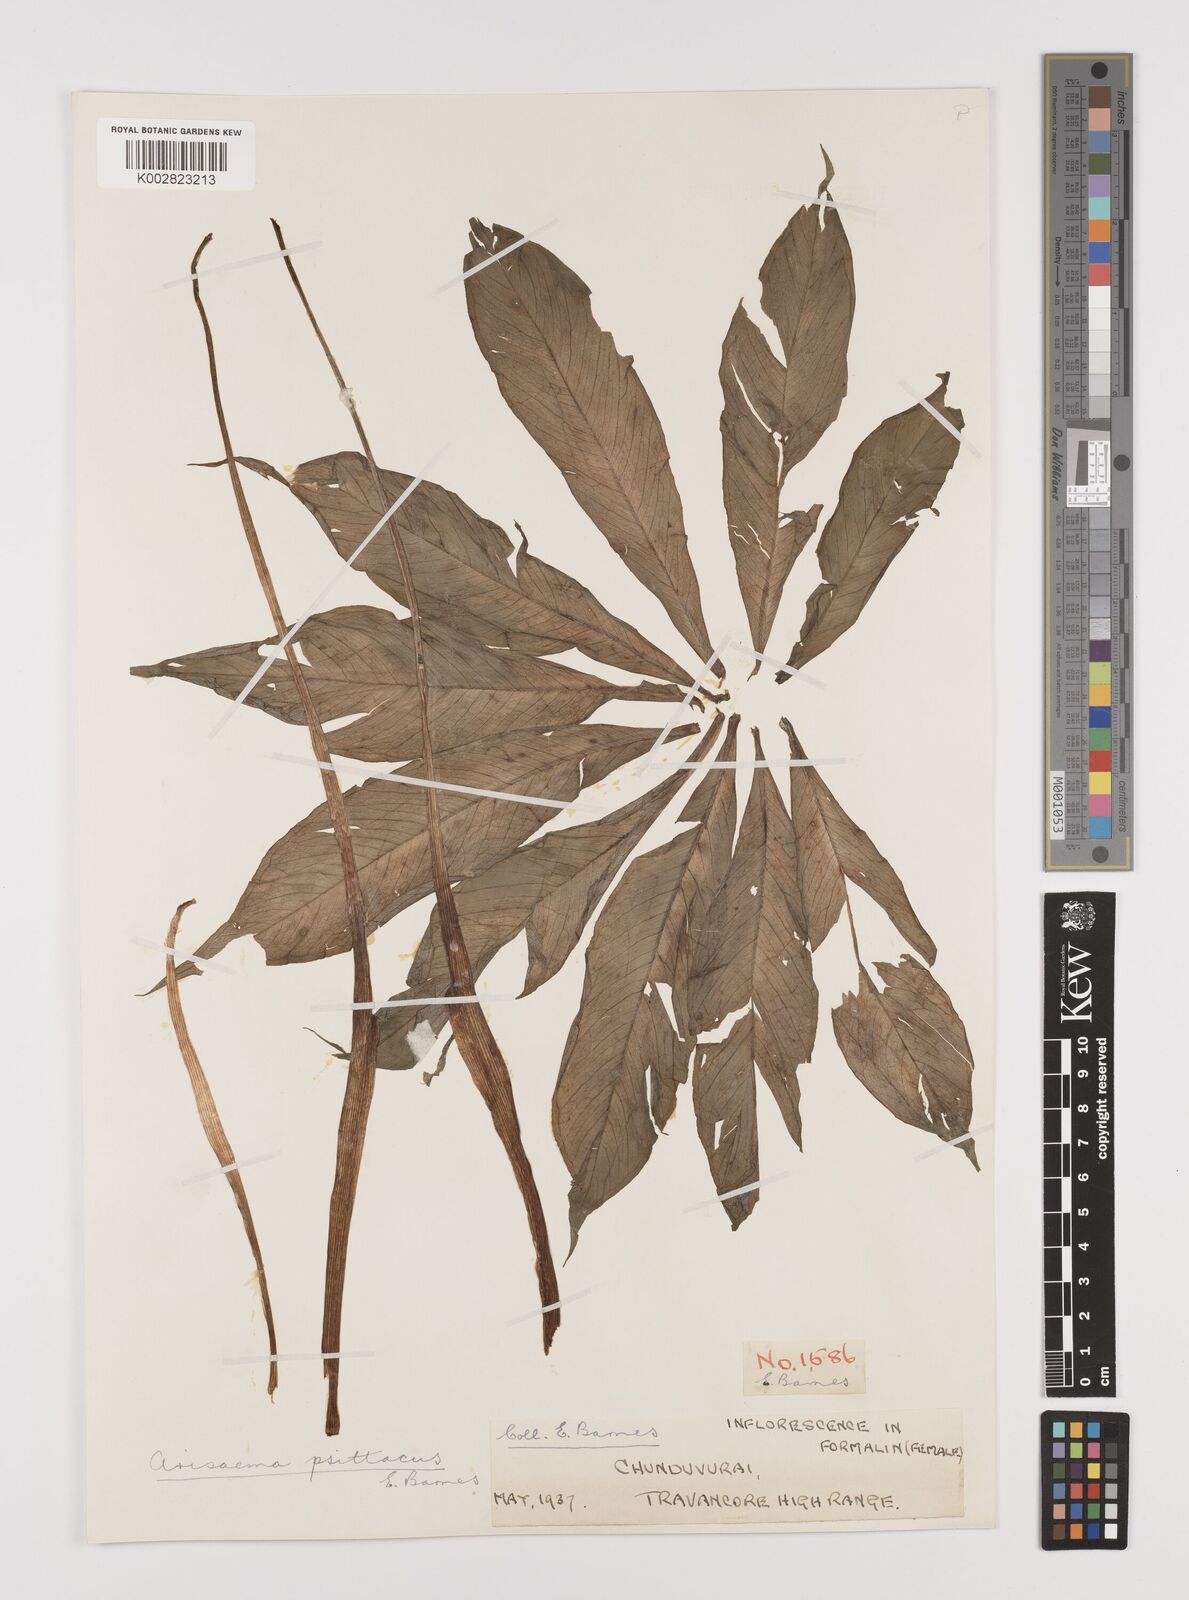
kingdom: Plantae
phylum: Tracheophyta
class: Liliopsida
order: Alismatales
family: Araceae
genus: Arisaema
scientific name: Arisaema psittacus
